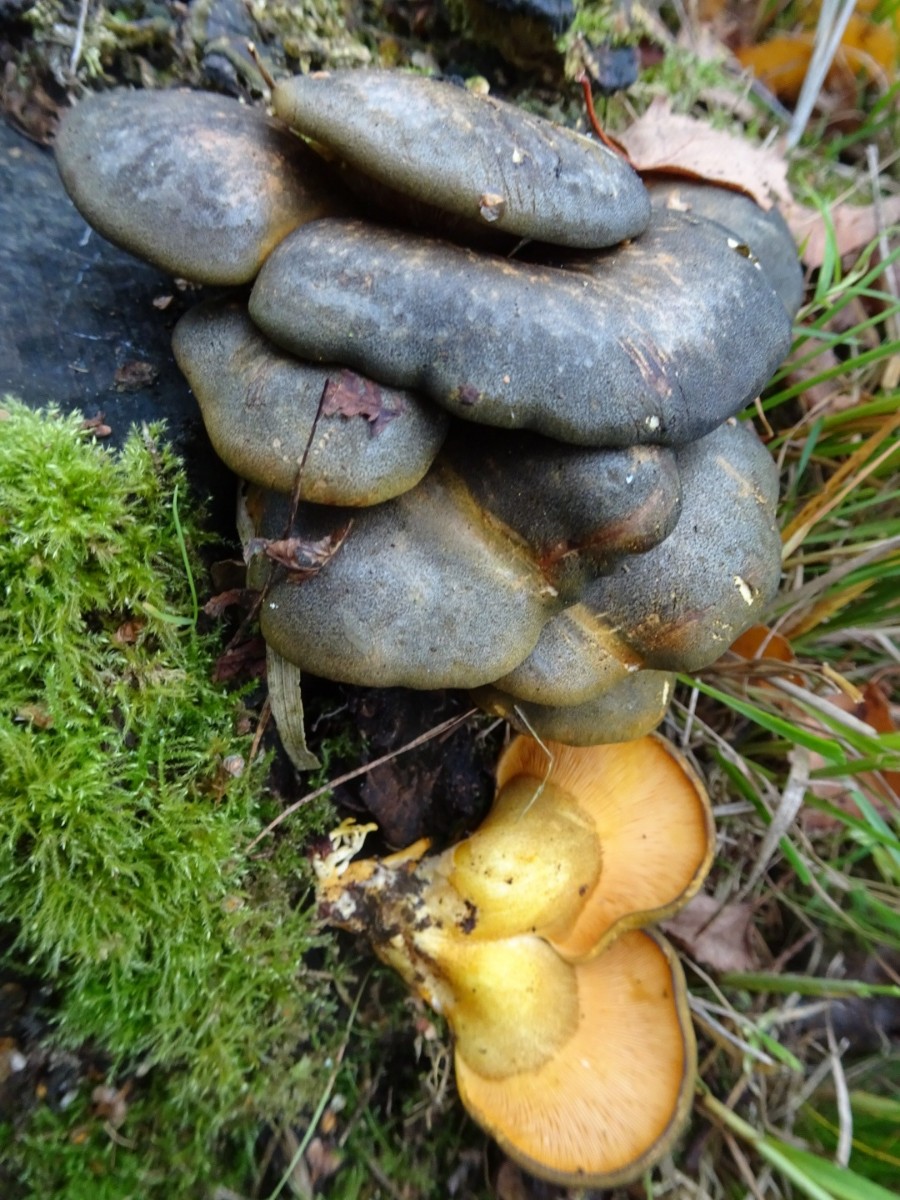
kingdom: Fungi
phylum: Basidiomycota
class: Agaricomycetes
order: Agaricales
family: Sarcomyxaceae
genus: Sarcomyxa
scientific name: Sarcomyxa serotina
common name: gummihat
